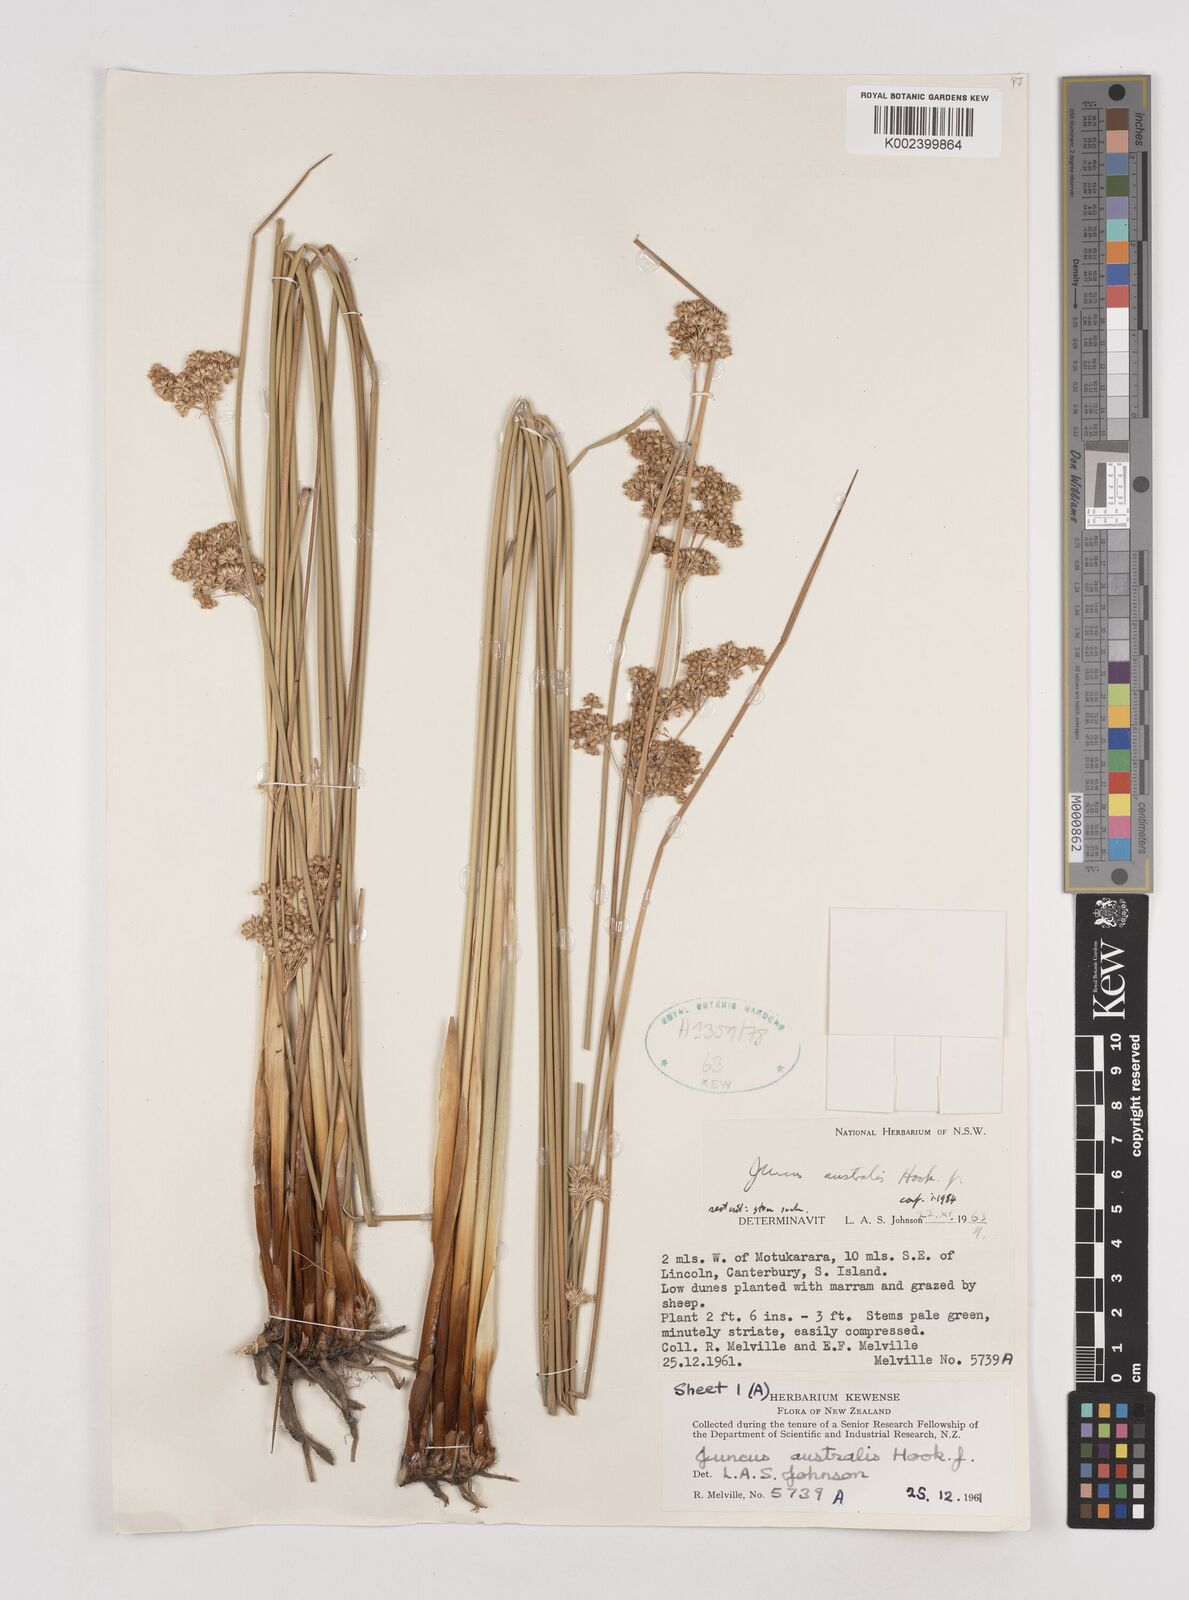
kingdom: Plantae
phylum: Tracheophyta
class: Liliopsida
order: Poales
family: Juncaceae
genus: Juncus
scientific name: Juncus australis
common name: Austral rush
